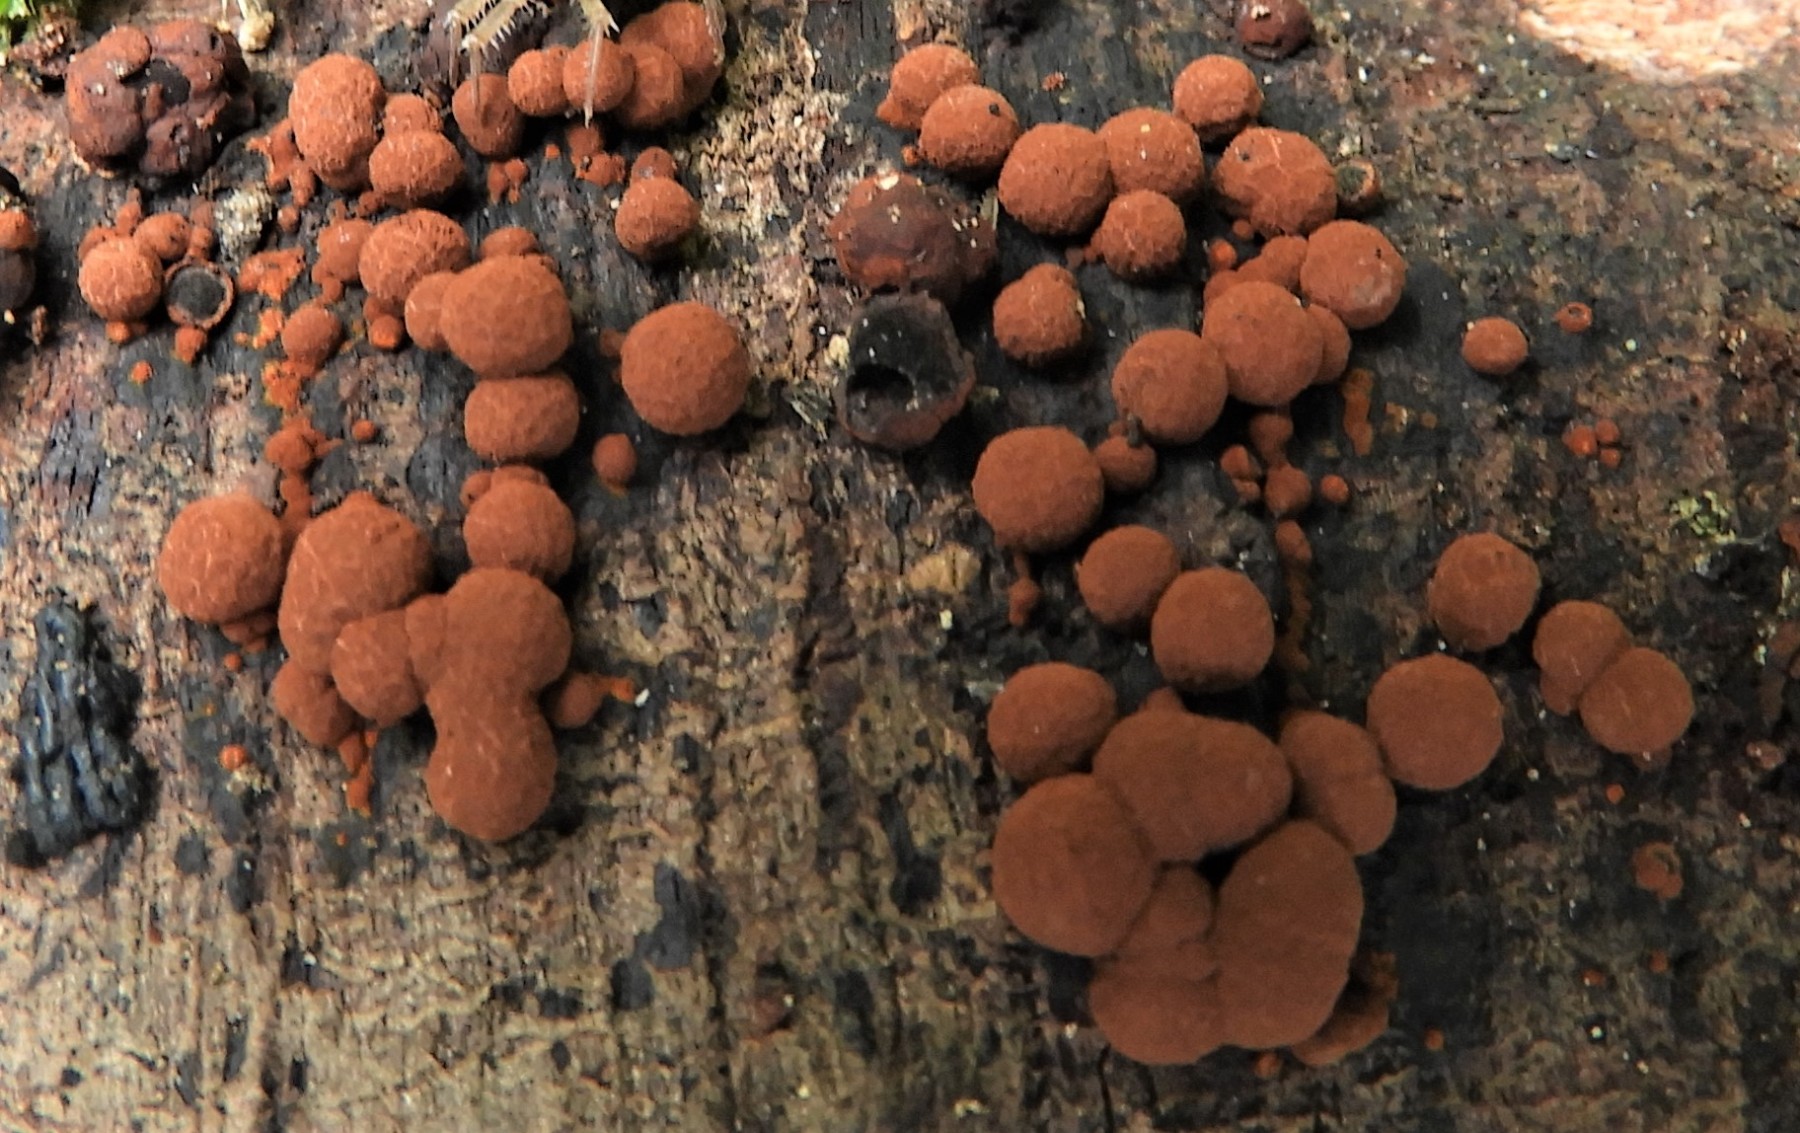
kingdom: Fungi
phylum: Ascomycota
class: Sordariomycetes
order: Xylariales
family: Hypoxylaceae
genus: Hypoxylon
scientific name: Hypoxylon fragiforme
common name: kuljordbær
